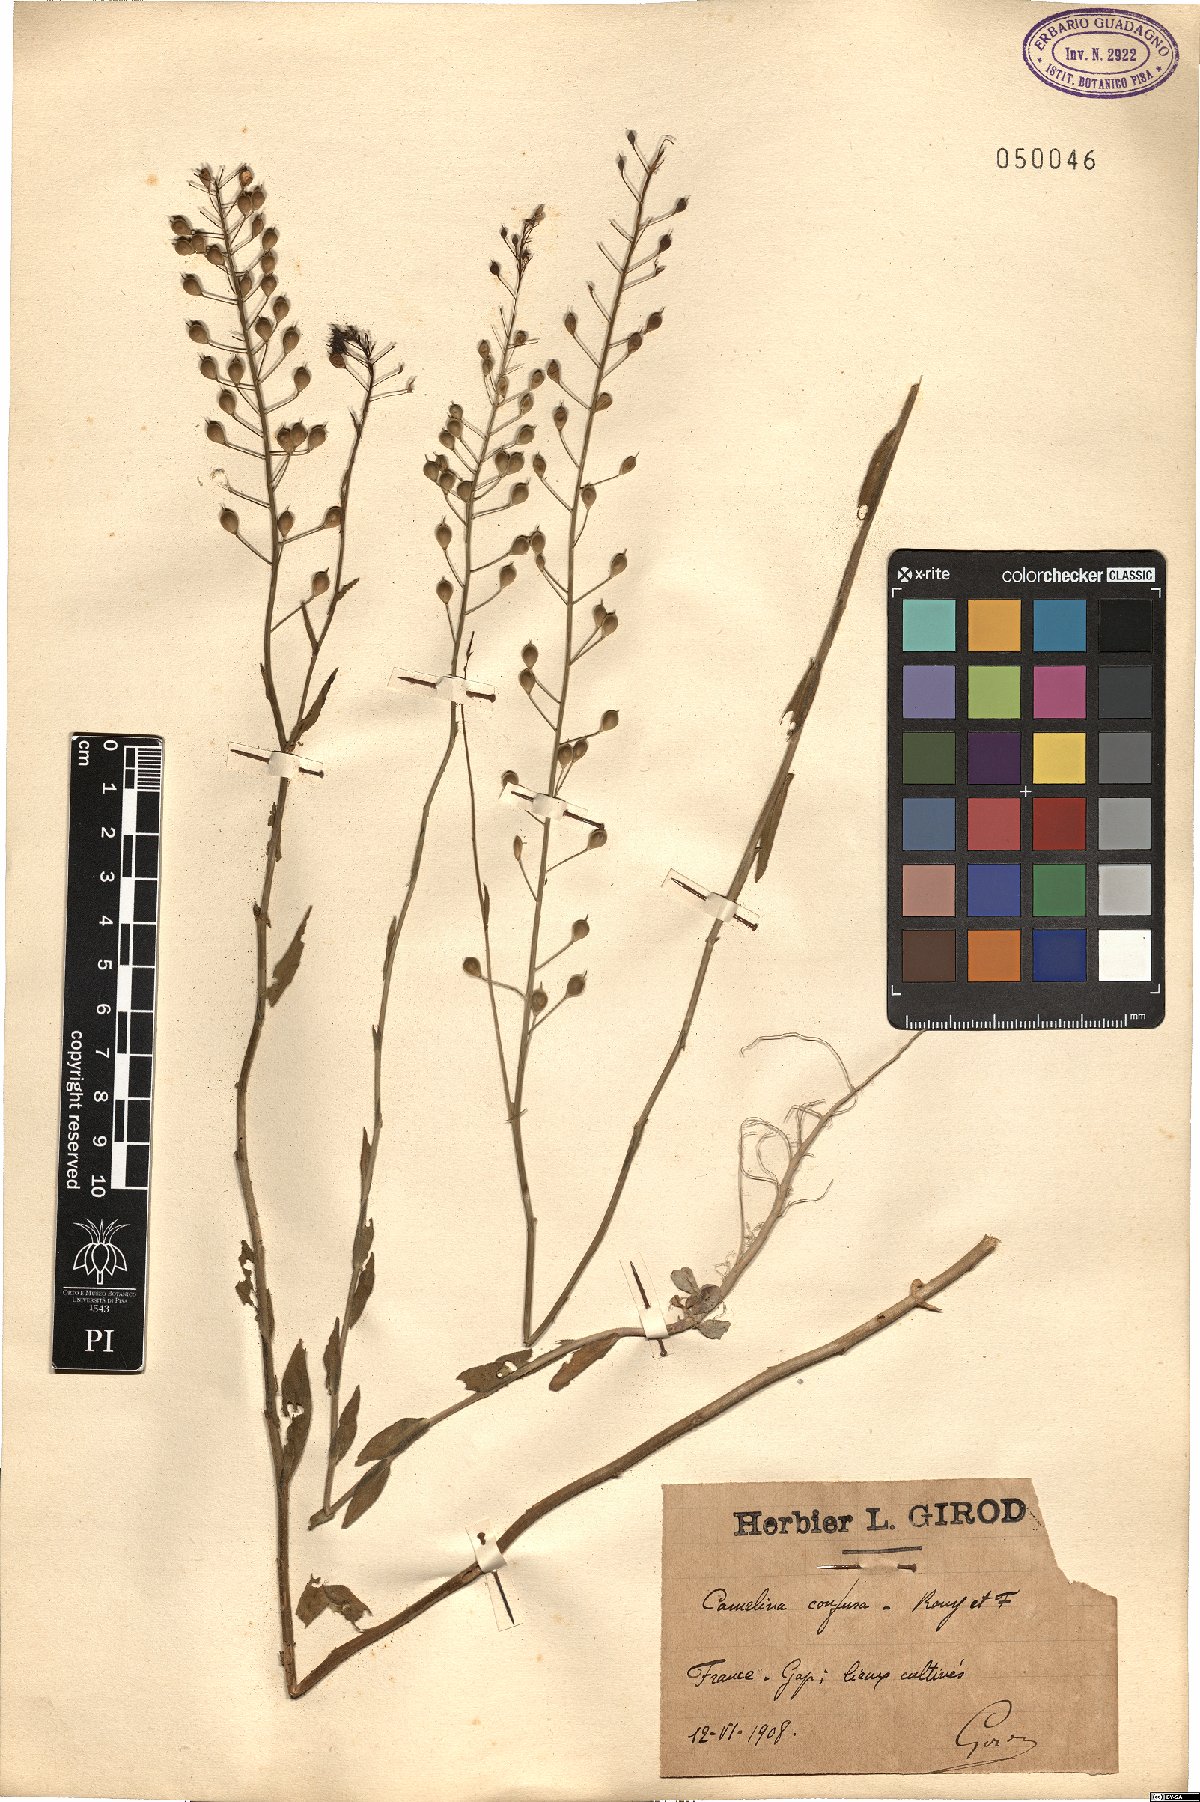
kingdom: Plantae
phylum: Tracheophyta
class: Magnoliopsida
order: Brassicales
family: Brassicaceae
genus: Camelina
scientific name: Camelina microcarpa
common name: Lesser gold-of-pleasure
